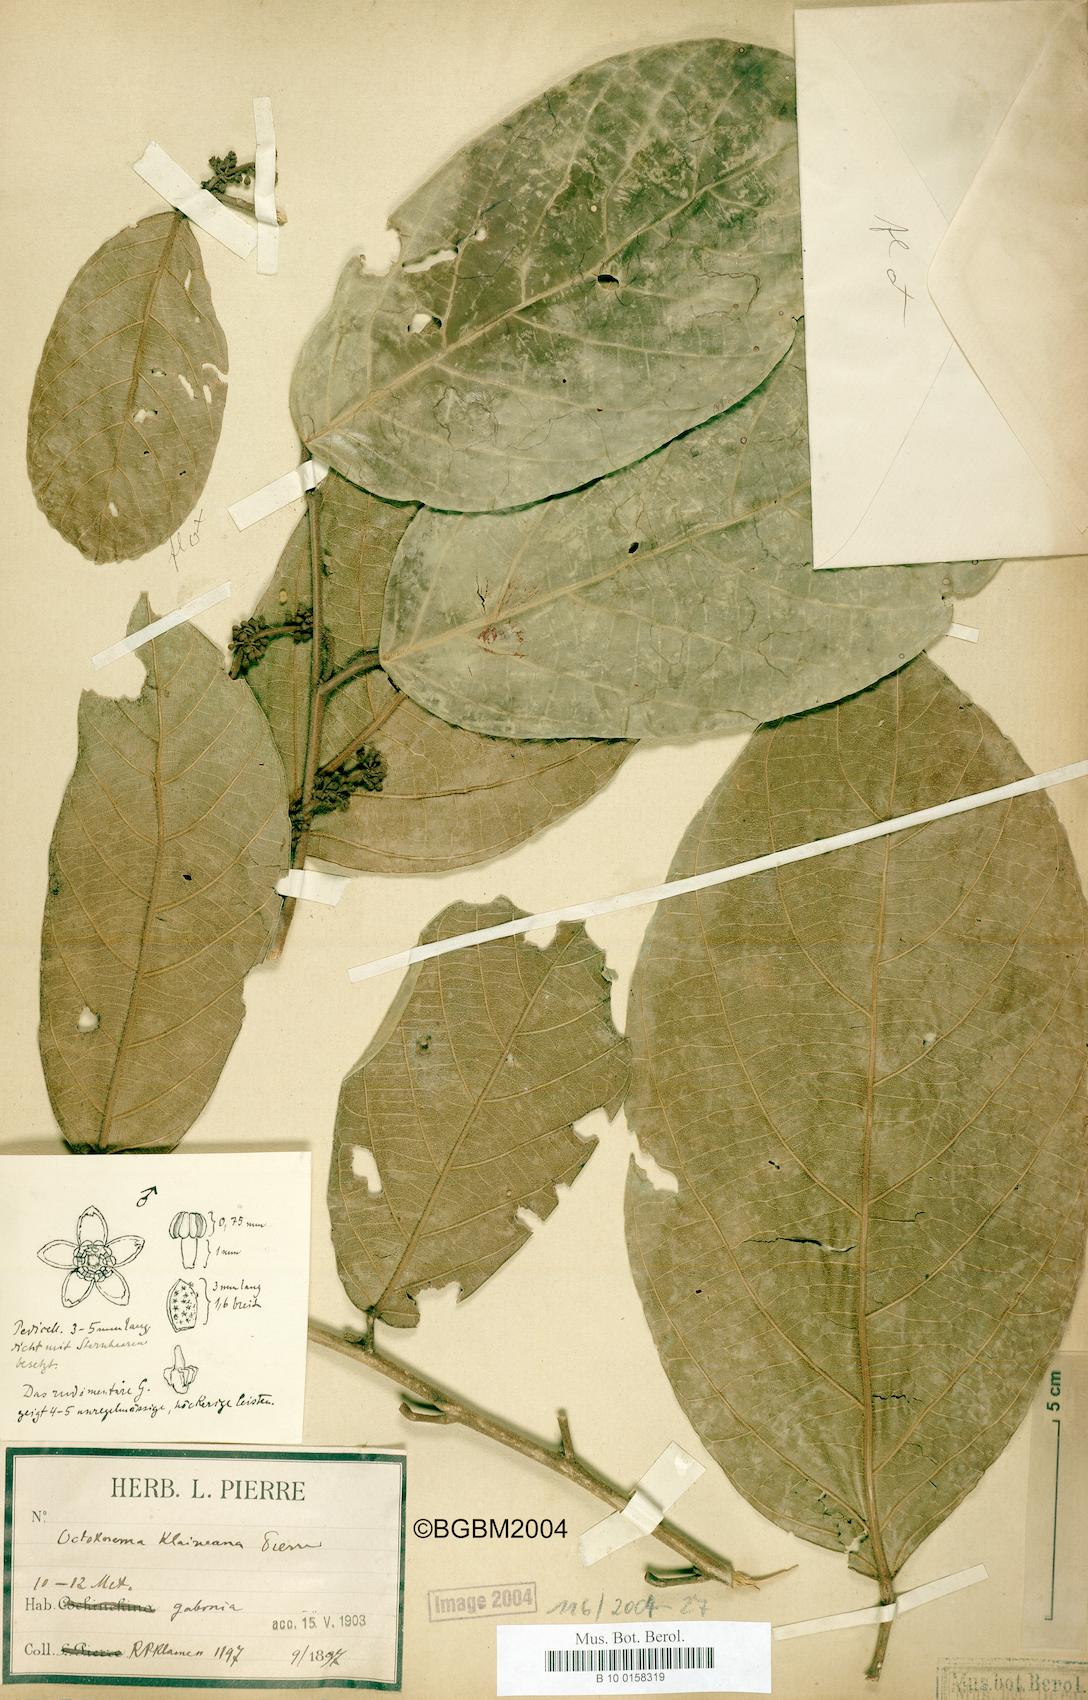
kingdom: Plantae
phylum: Tracheophyta
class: Magnoliopsida
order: Santalales
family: Octoknemaceae
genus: Octoknema
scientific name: Octoknema klaineana
